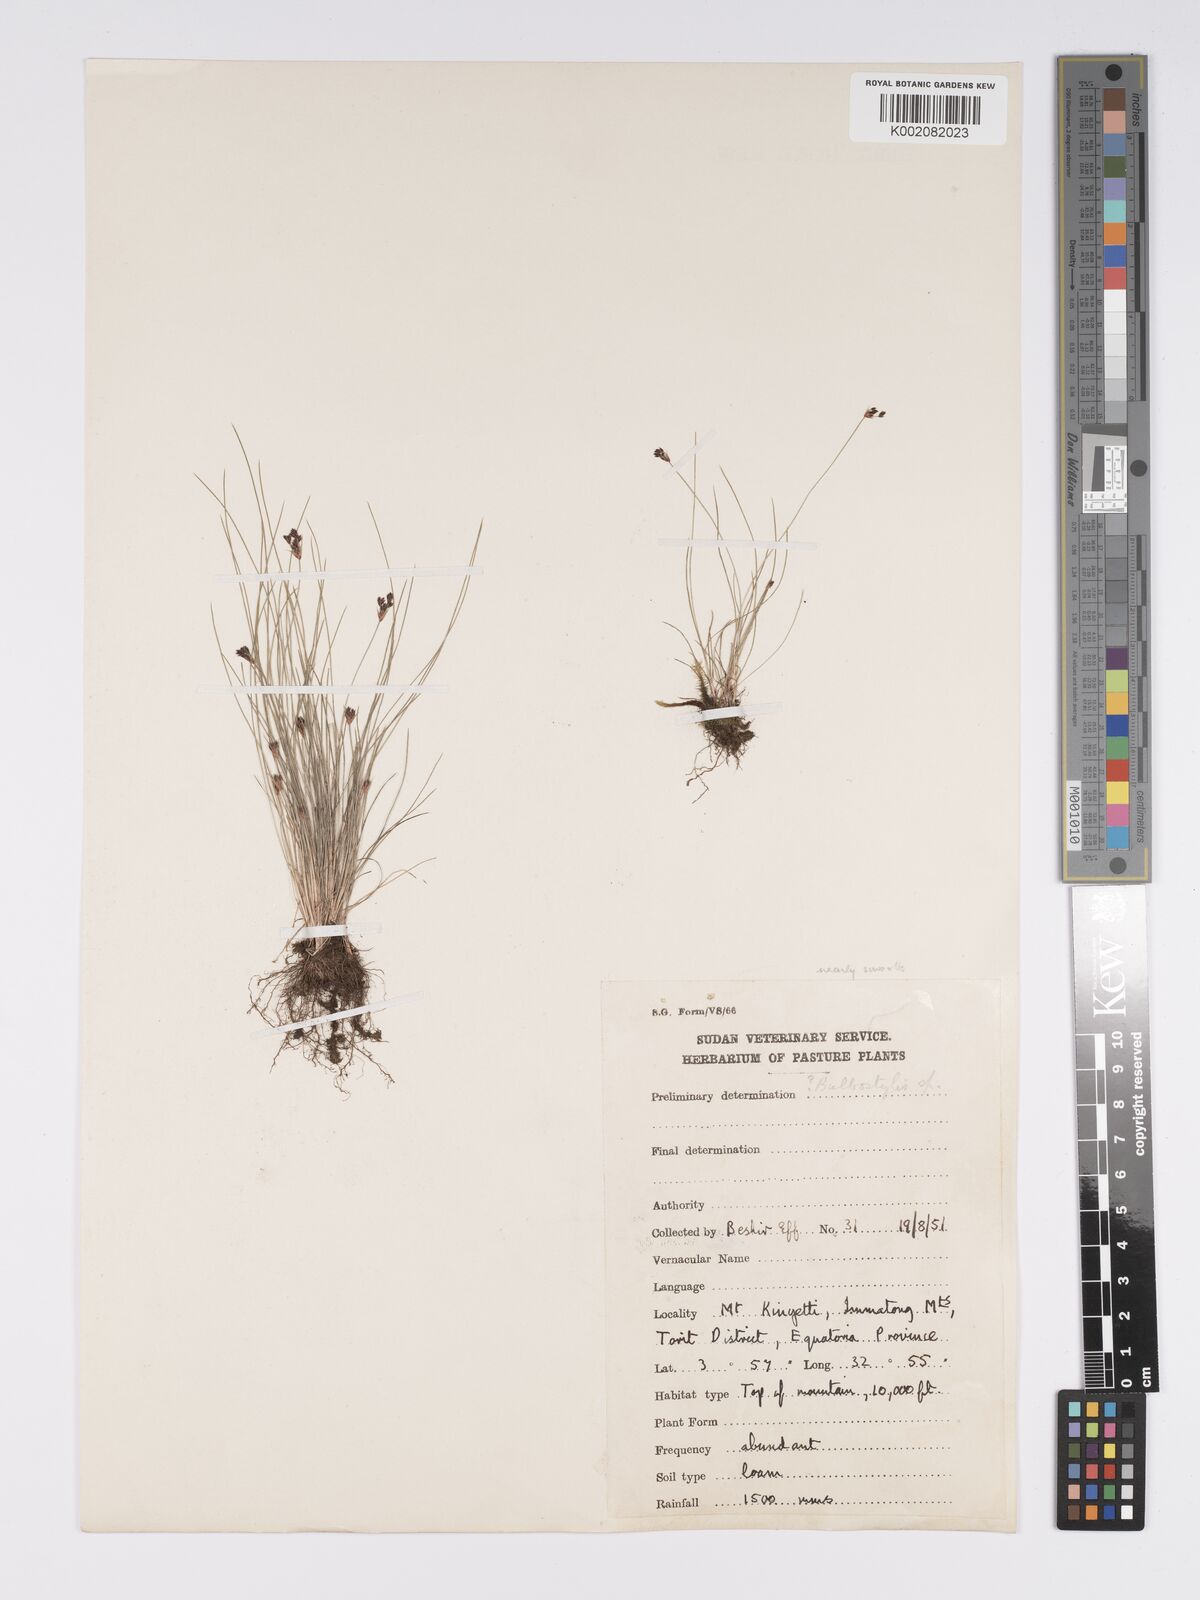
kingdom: Plantae
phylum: Tracheophyta
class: Liliopsida
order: Poales
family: Cyperaceae
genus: Bulbostylis
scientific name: Bulbostylis densa
